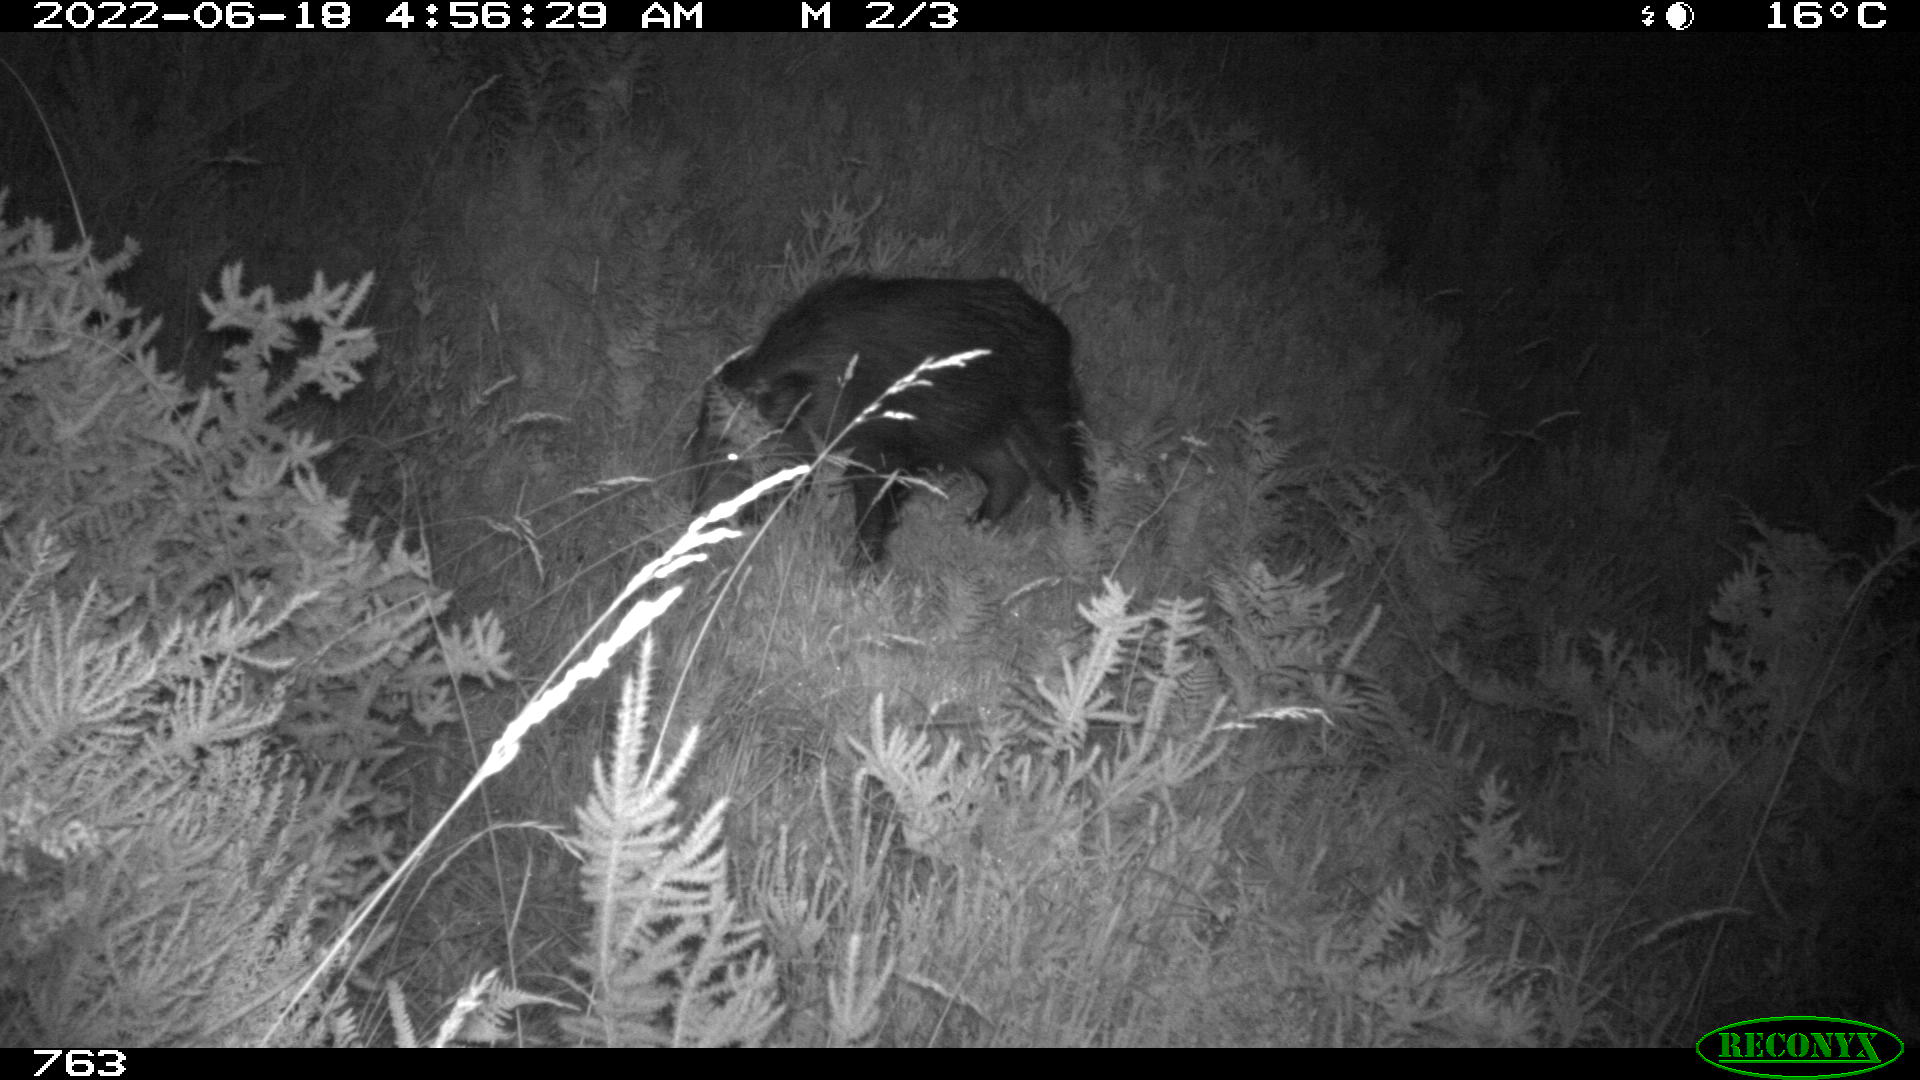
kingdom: Animalia
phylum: Chordata
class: Mammalia
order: Artiodactyla
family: Suidae
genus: Sus
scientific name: Sus scrofa
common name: Wild boar
